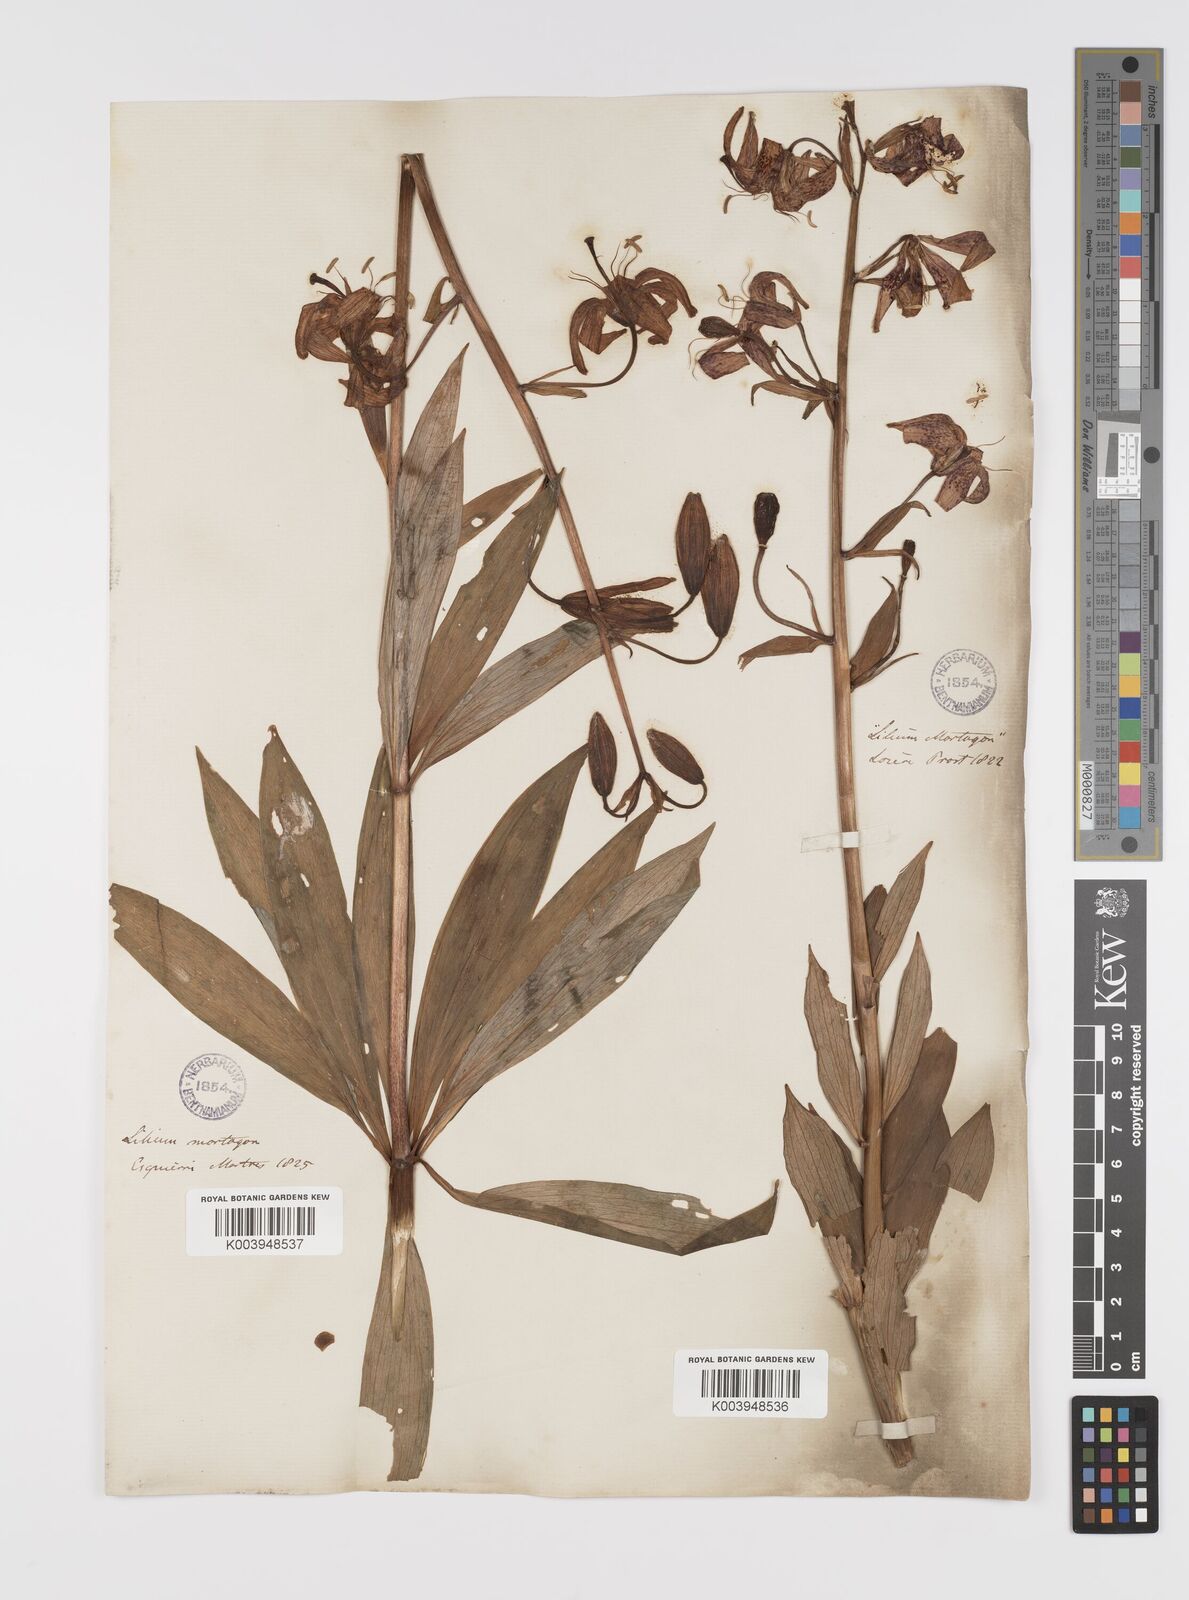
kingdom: Plantae
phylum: Tracheophyta
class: Liliopsida
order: Liliales
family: Liliaceae
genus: Lilium
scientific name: Lilium martagon
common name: Martagon lily
